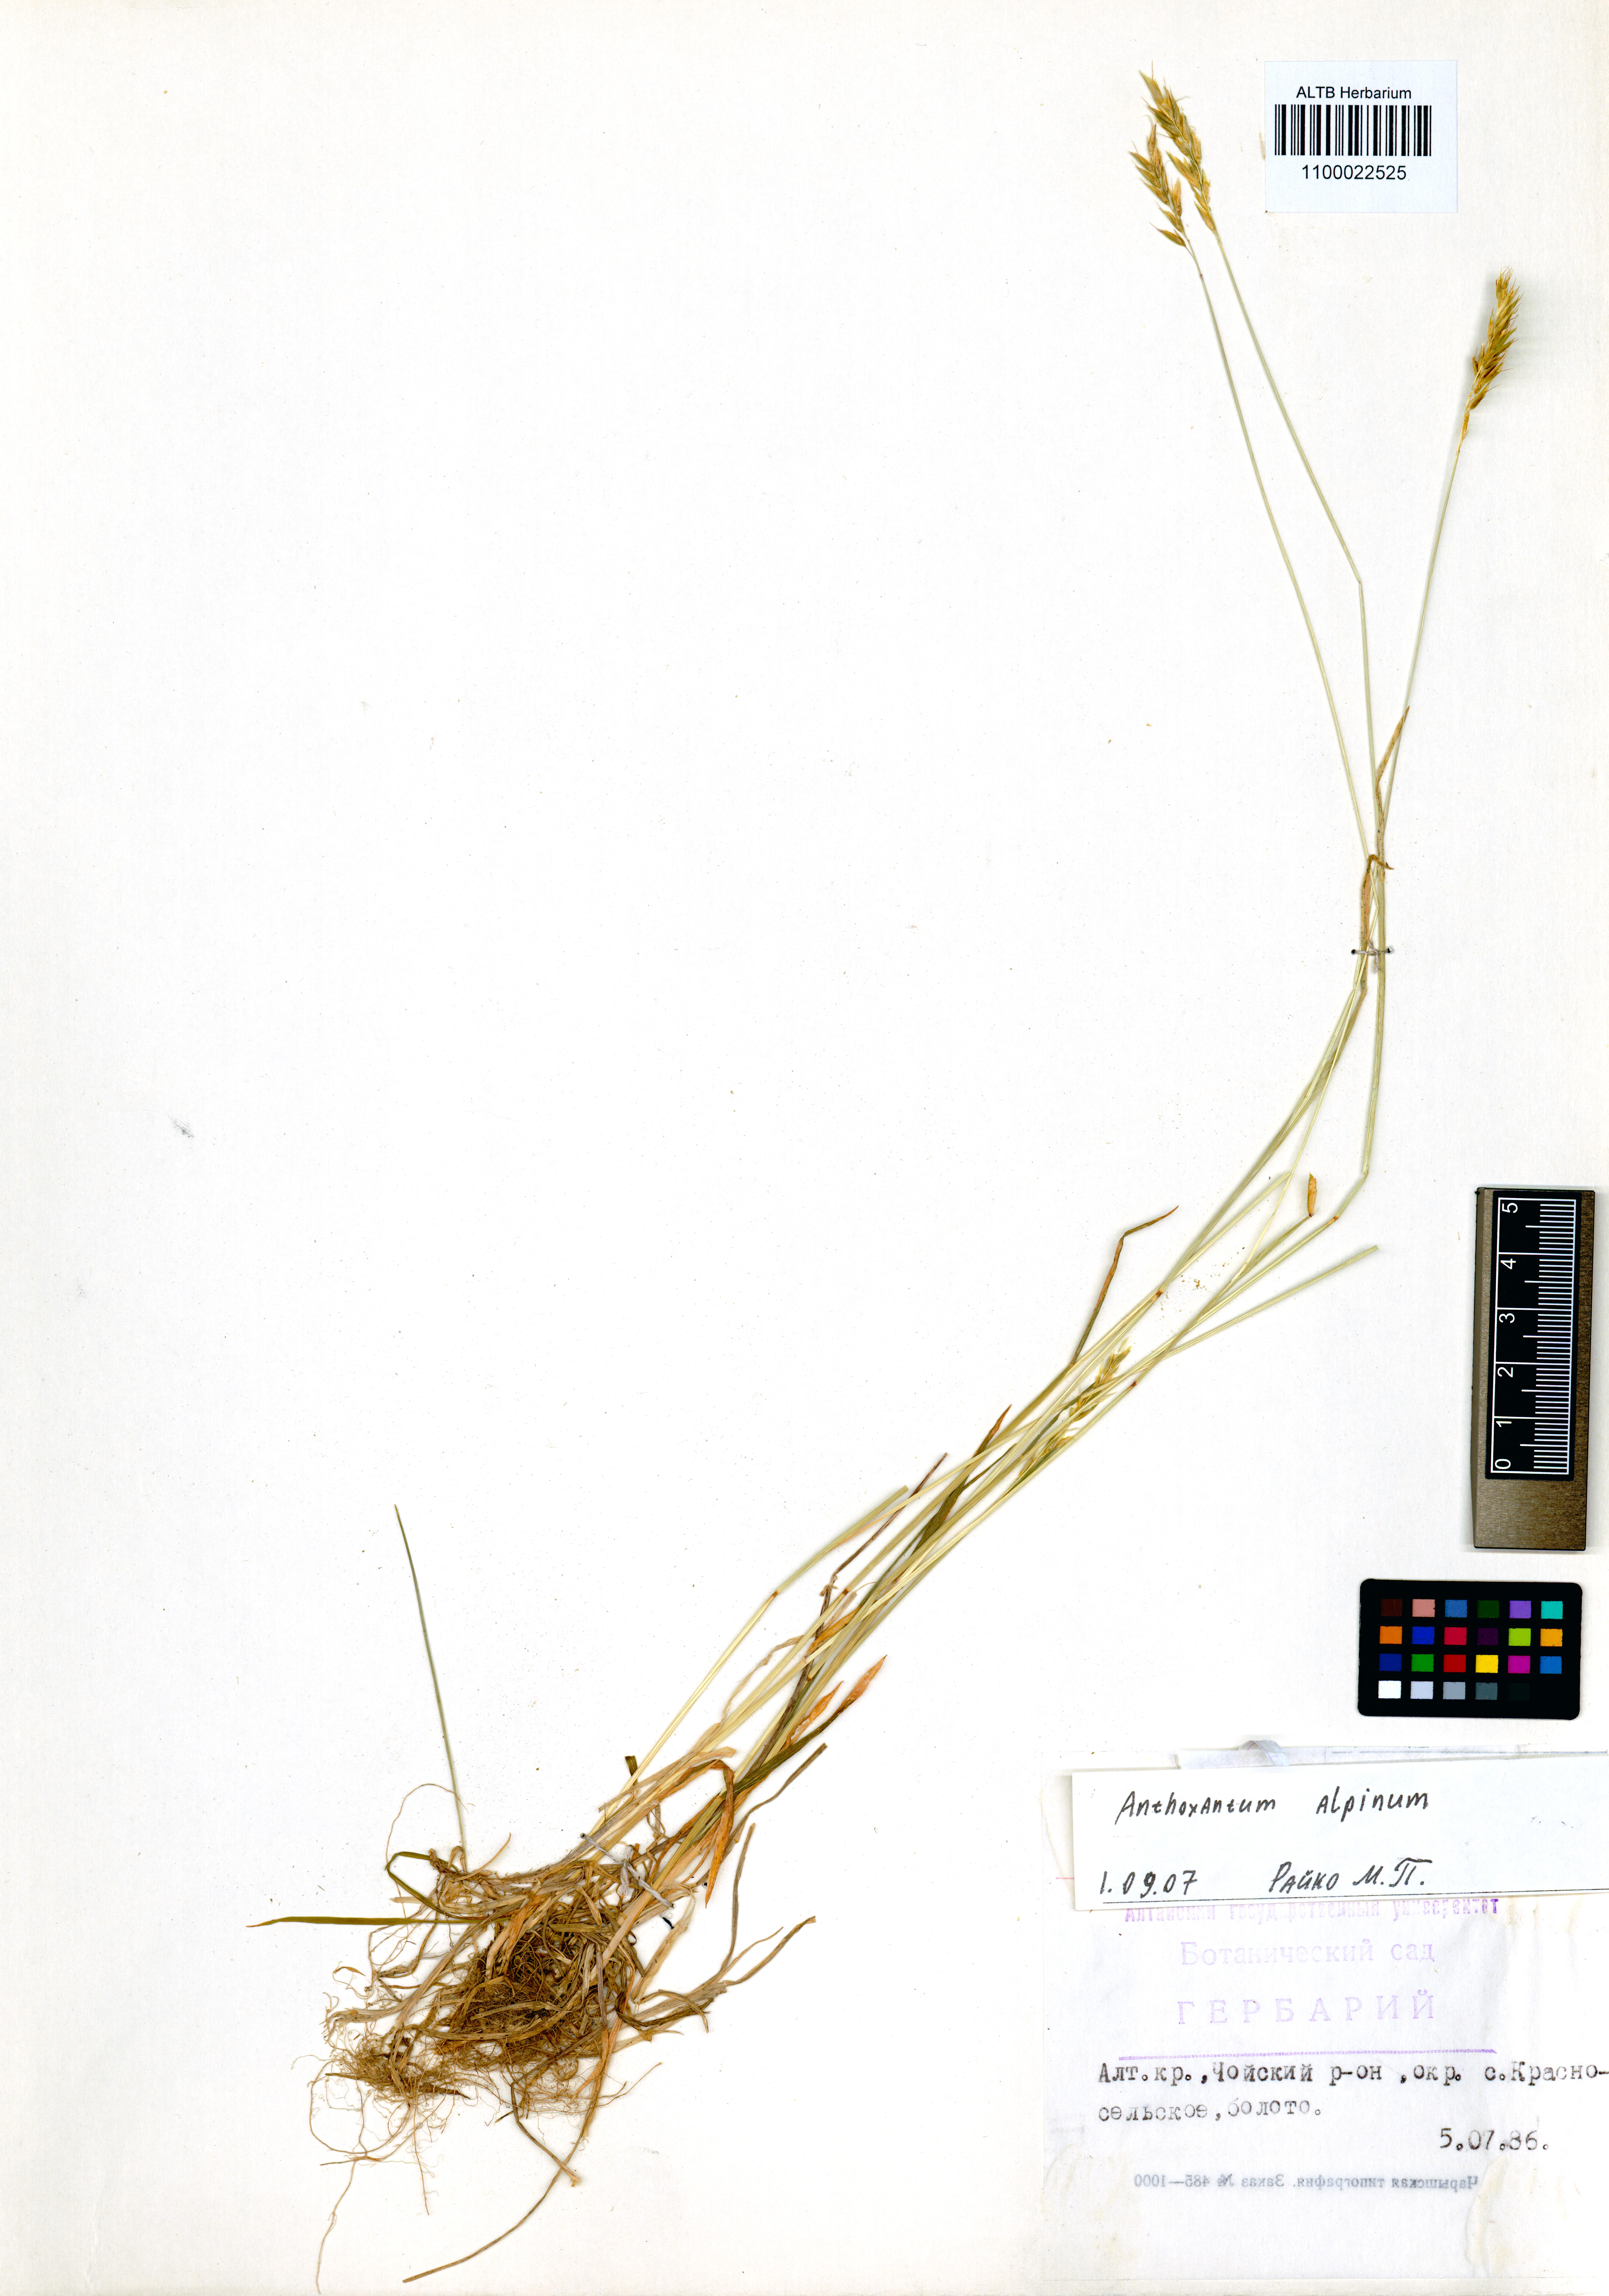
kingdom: Plantae
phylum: Tracheophyta
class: Liliopsida
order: Poales
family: Poaceae
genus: Anthoxanthum
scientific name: Anthoxanthum nipponicum
